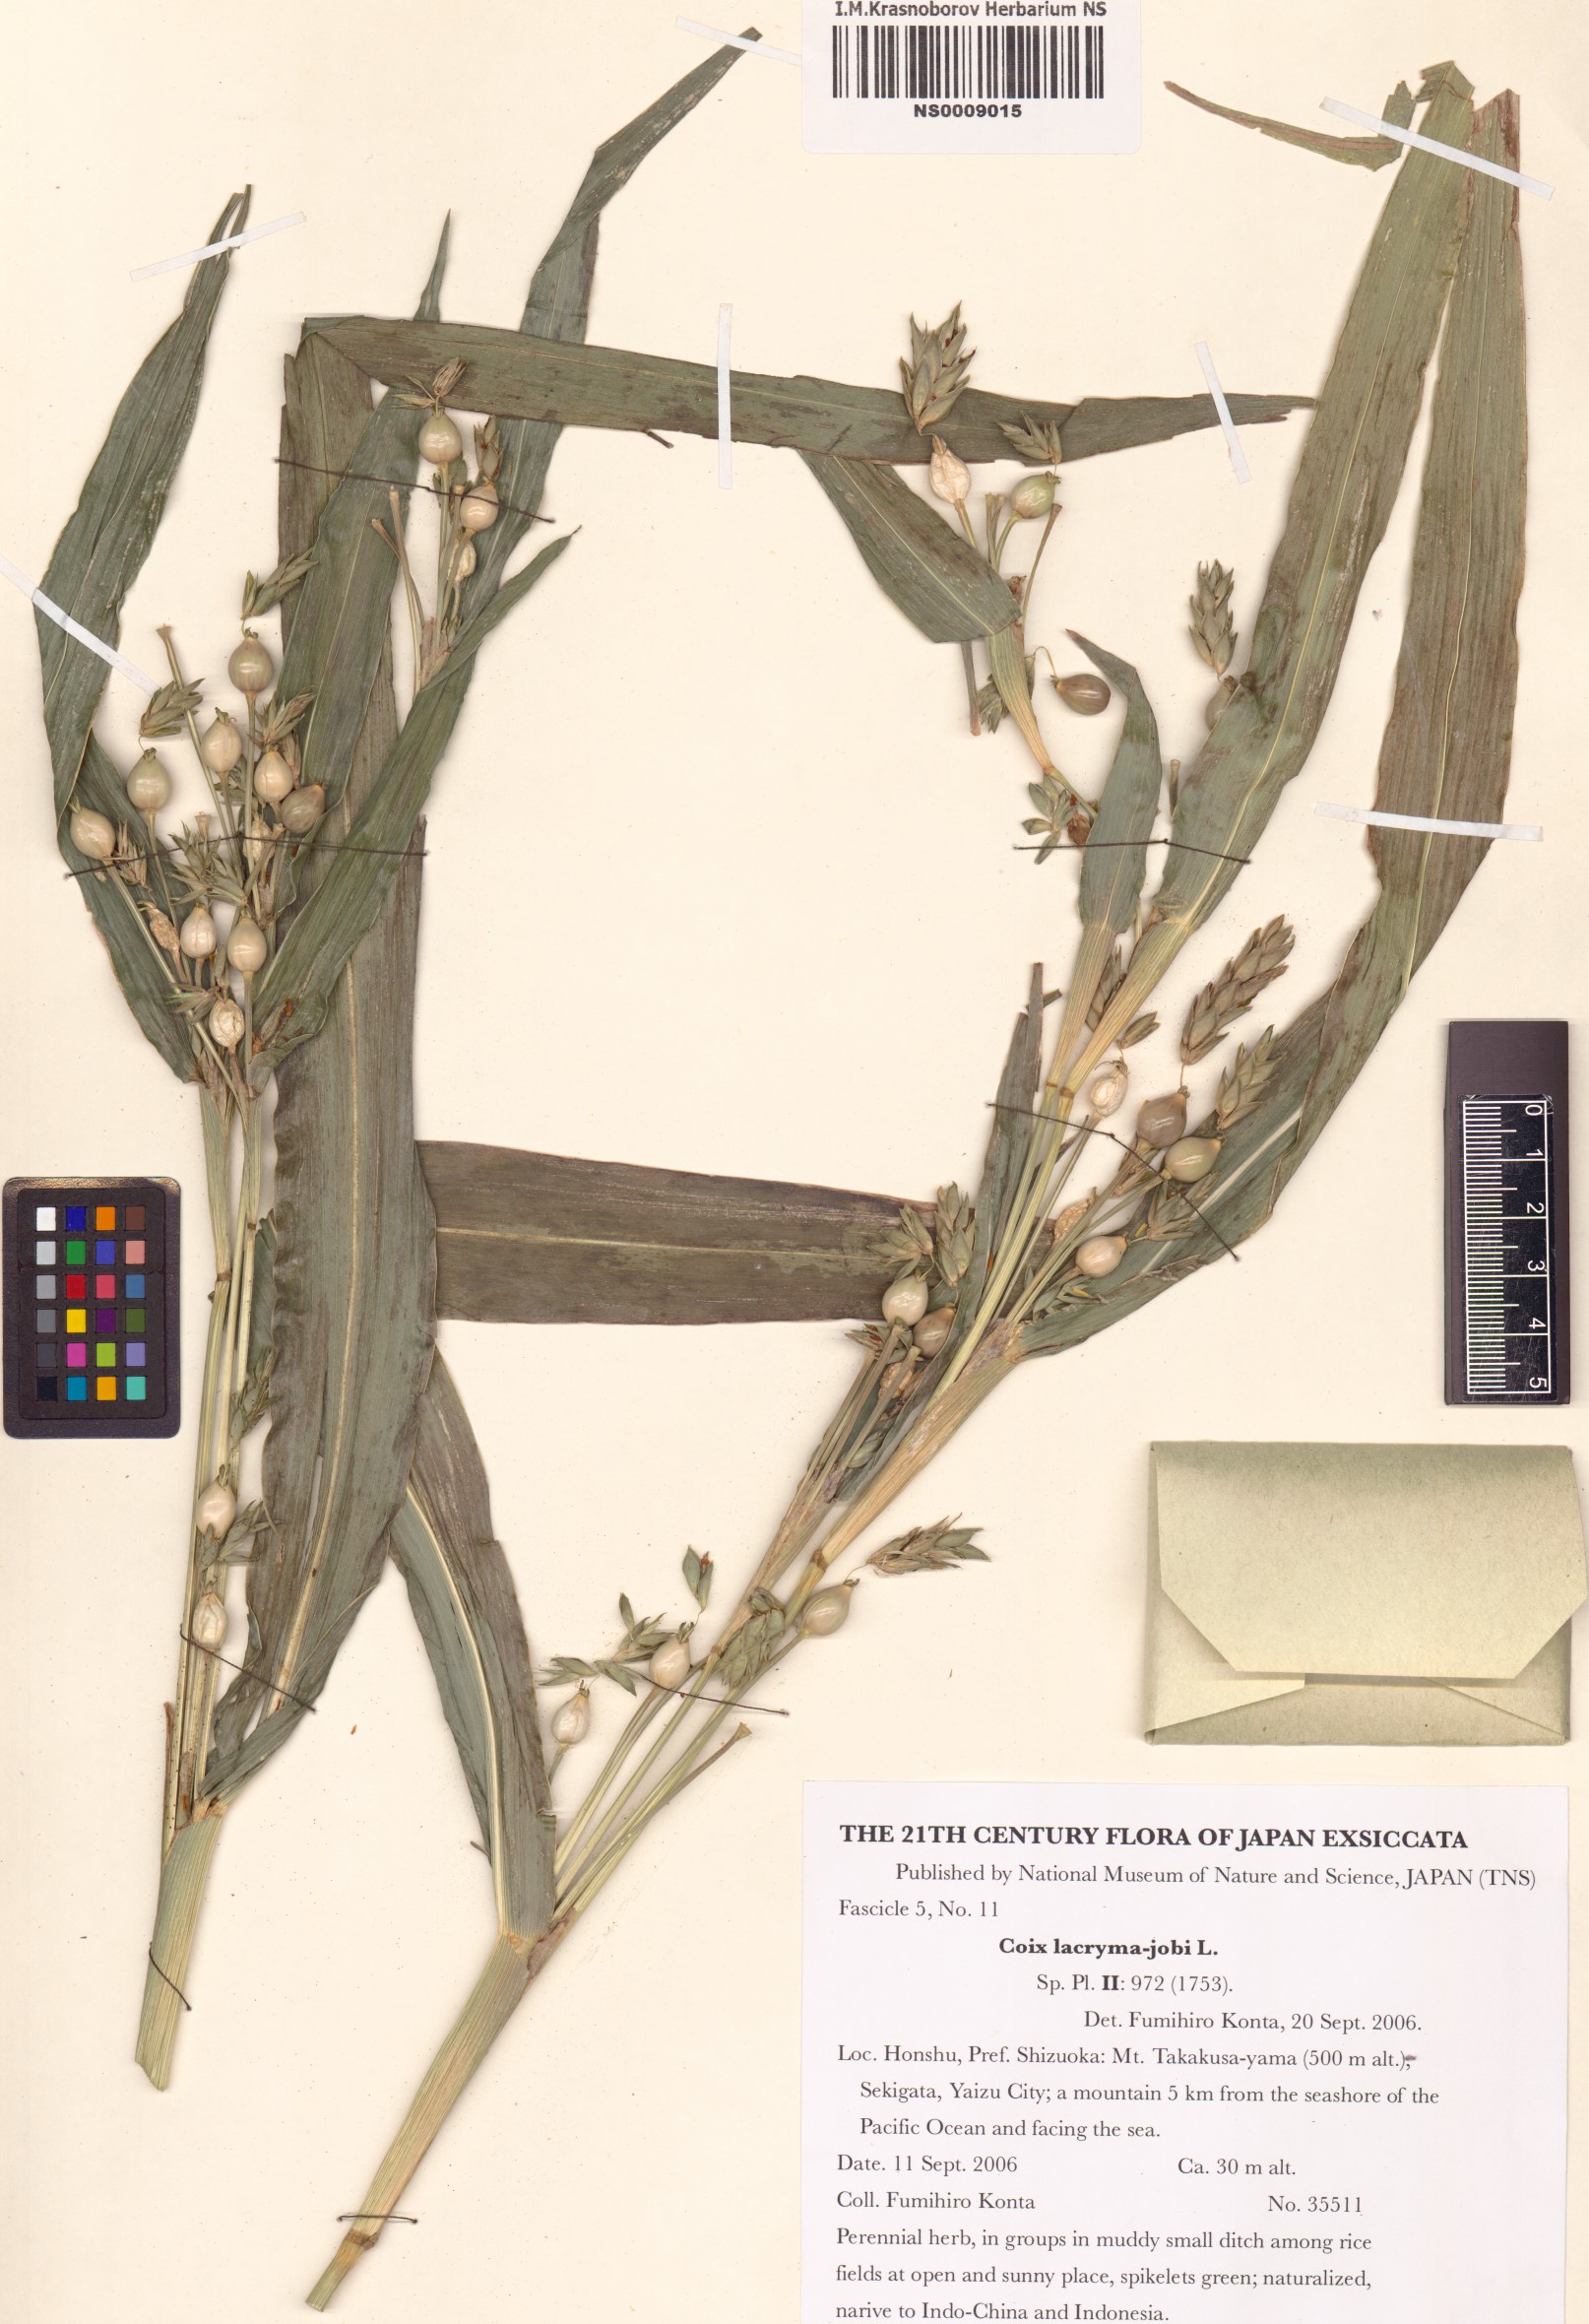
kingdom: Plantae
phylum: Tracheophyta
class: Liliopsida
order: Poales
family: Poaceae
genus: Coix
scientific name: Coix lacryma-jobi
